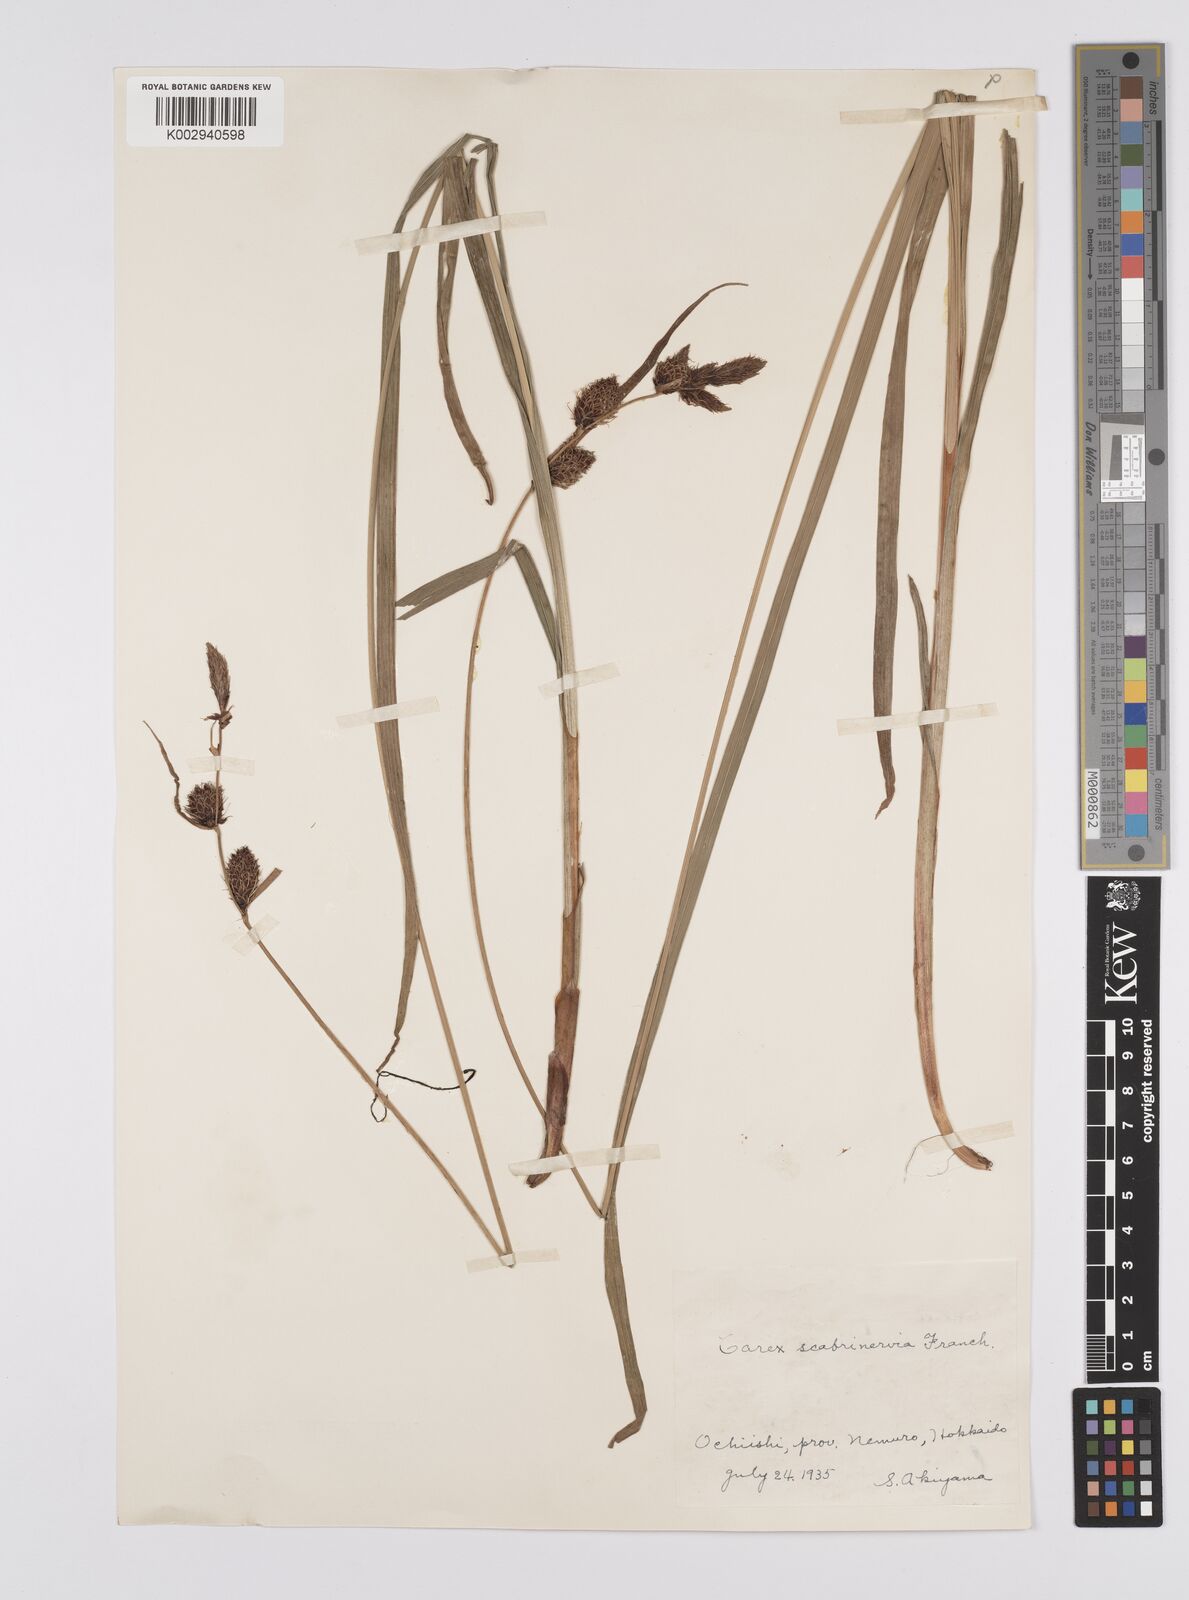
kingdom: Plantae
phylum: Tracheophyta
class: Liliopsida
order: Poales
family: Cyperaceae
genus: Carex
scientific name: Carex scita
